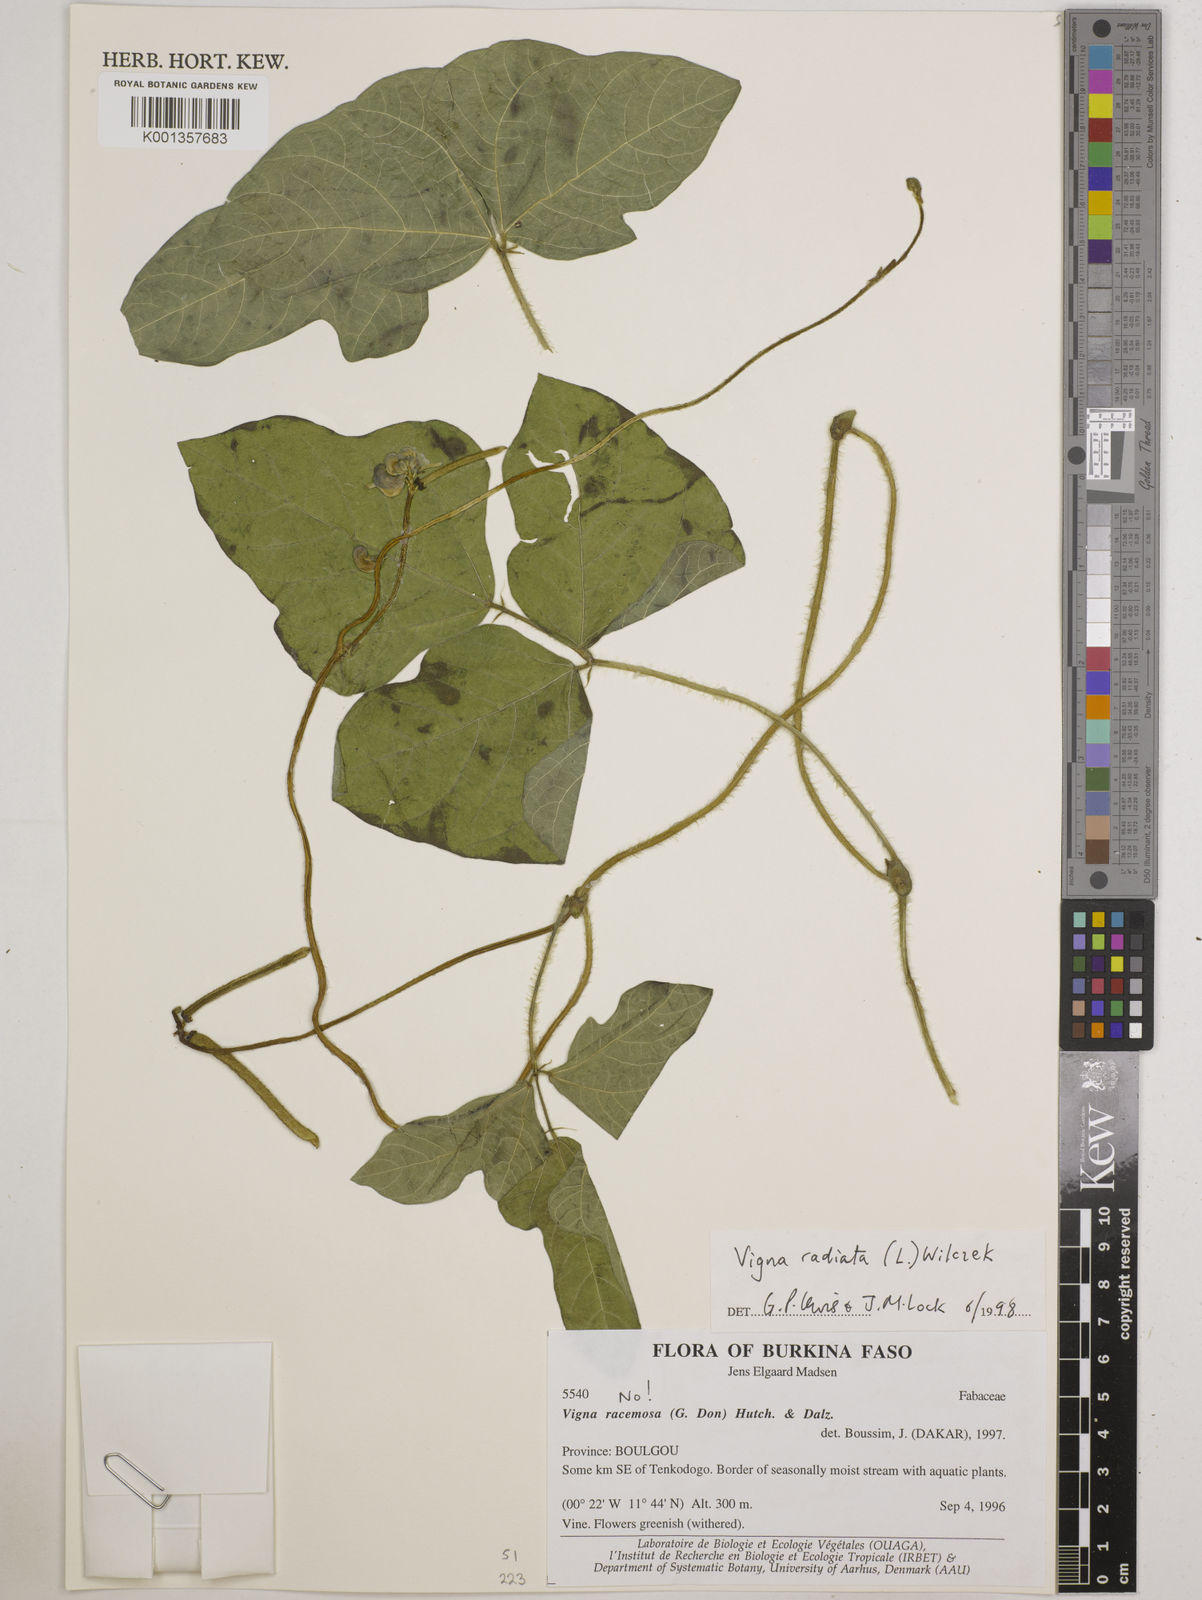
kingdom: Plantae
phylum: Tracheophyta
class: Magnoliopsida
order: Fabales
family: Fabaceae
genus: Vigna
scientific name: Vigna radiata
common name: Mung-bean
